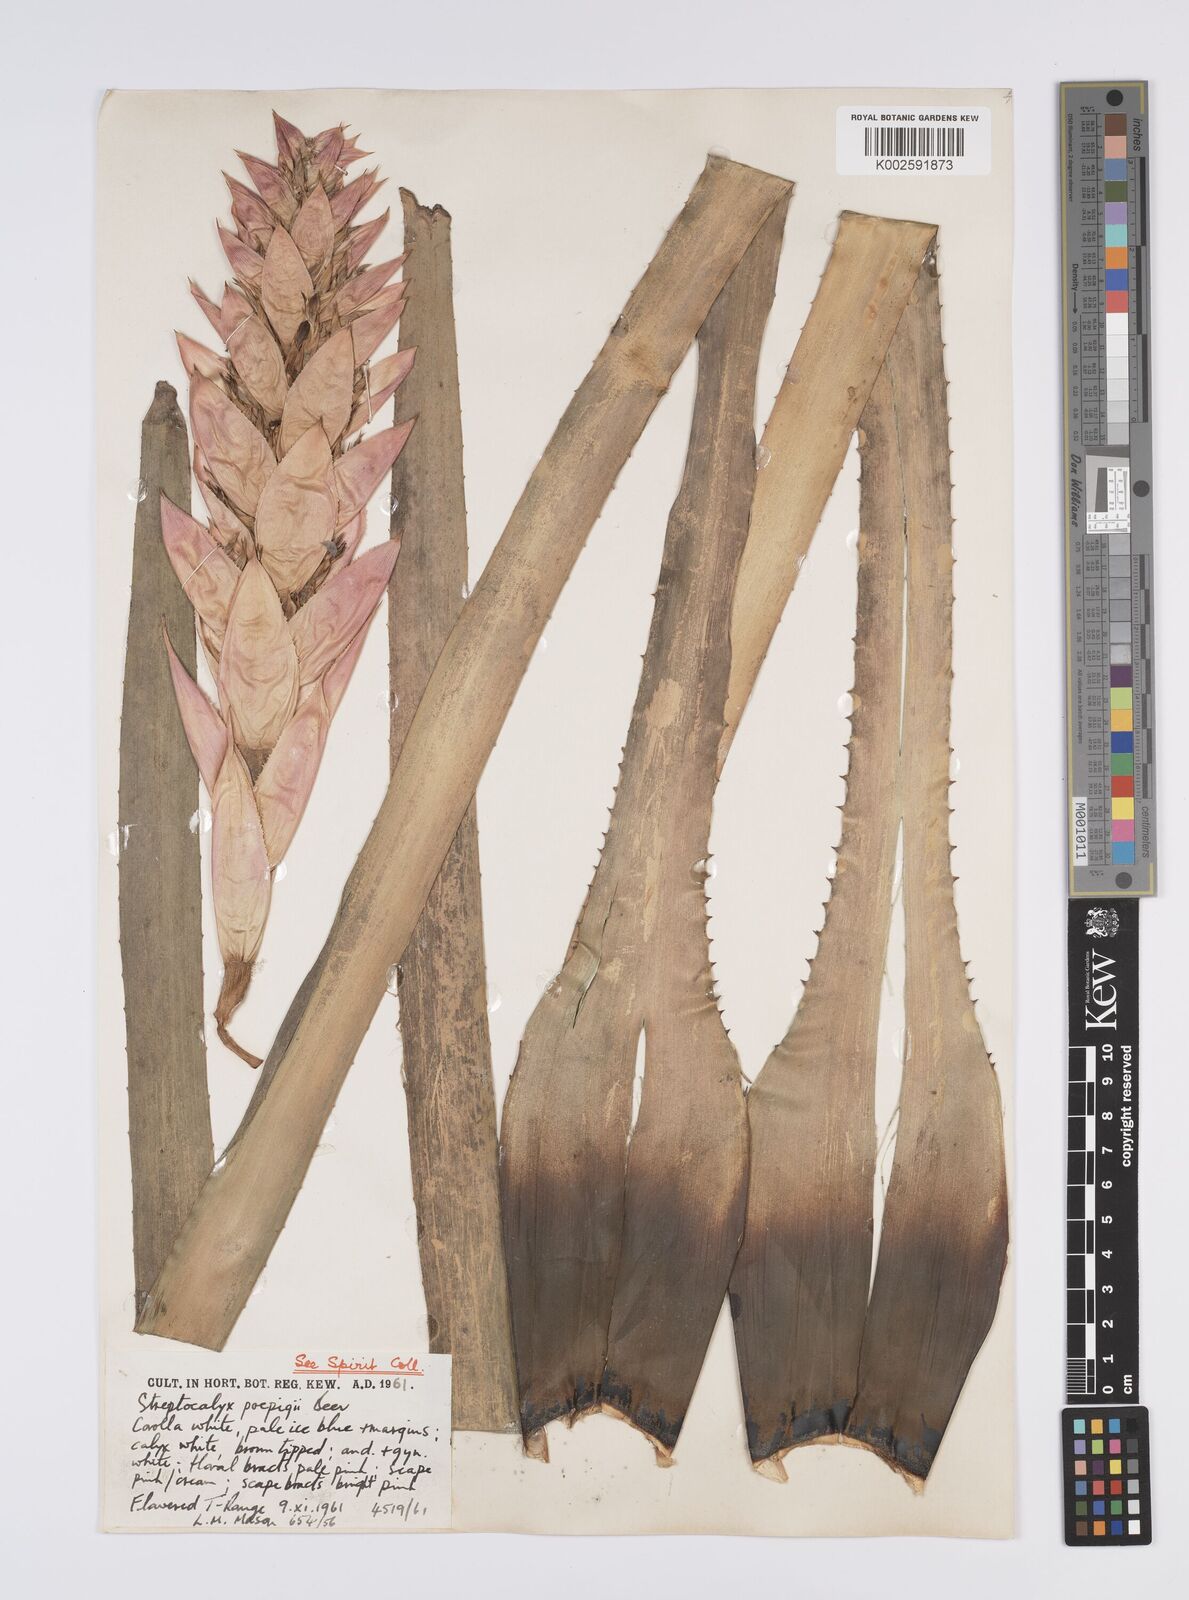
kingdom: Plantae
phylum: Tracheophyta
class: Liliopsida
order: Poales
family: Bromeliaceae
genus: Aechmea
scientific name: Aechmea
